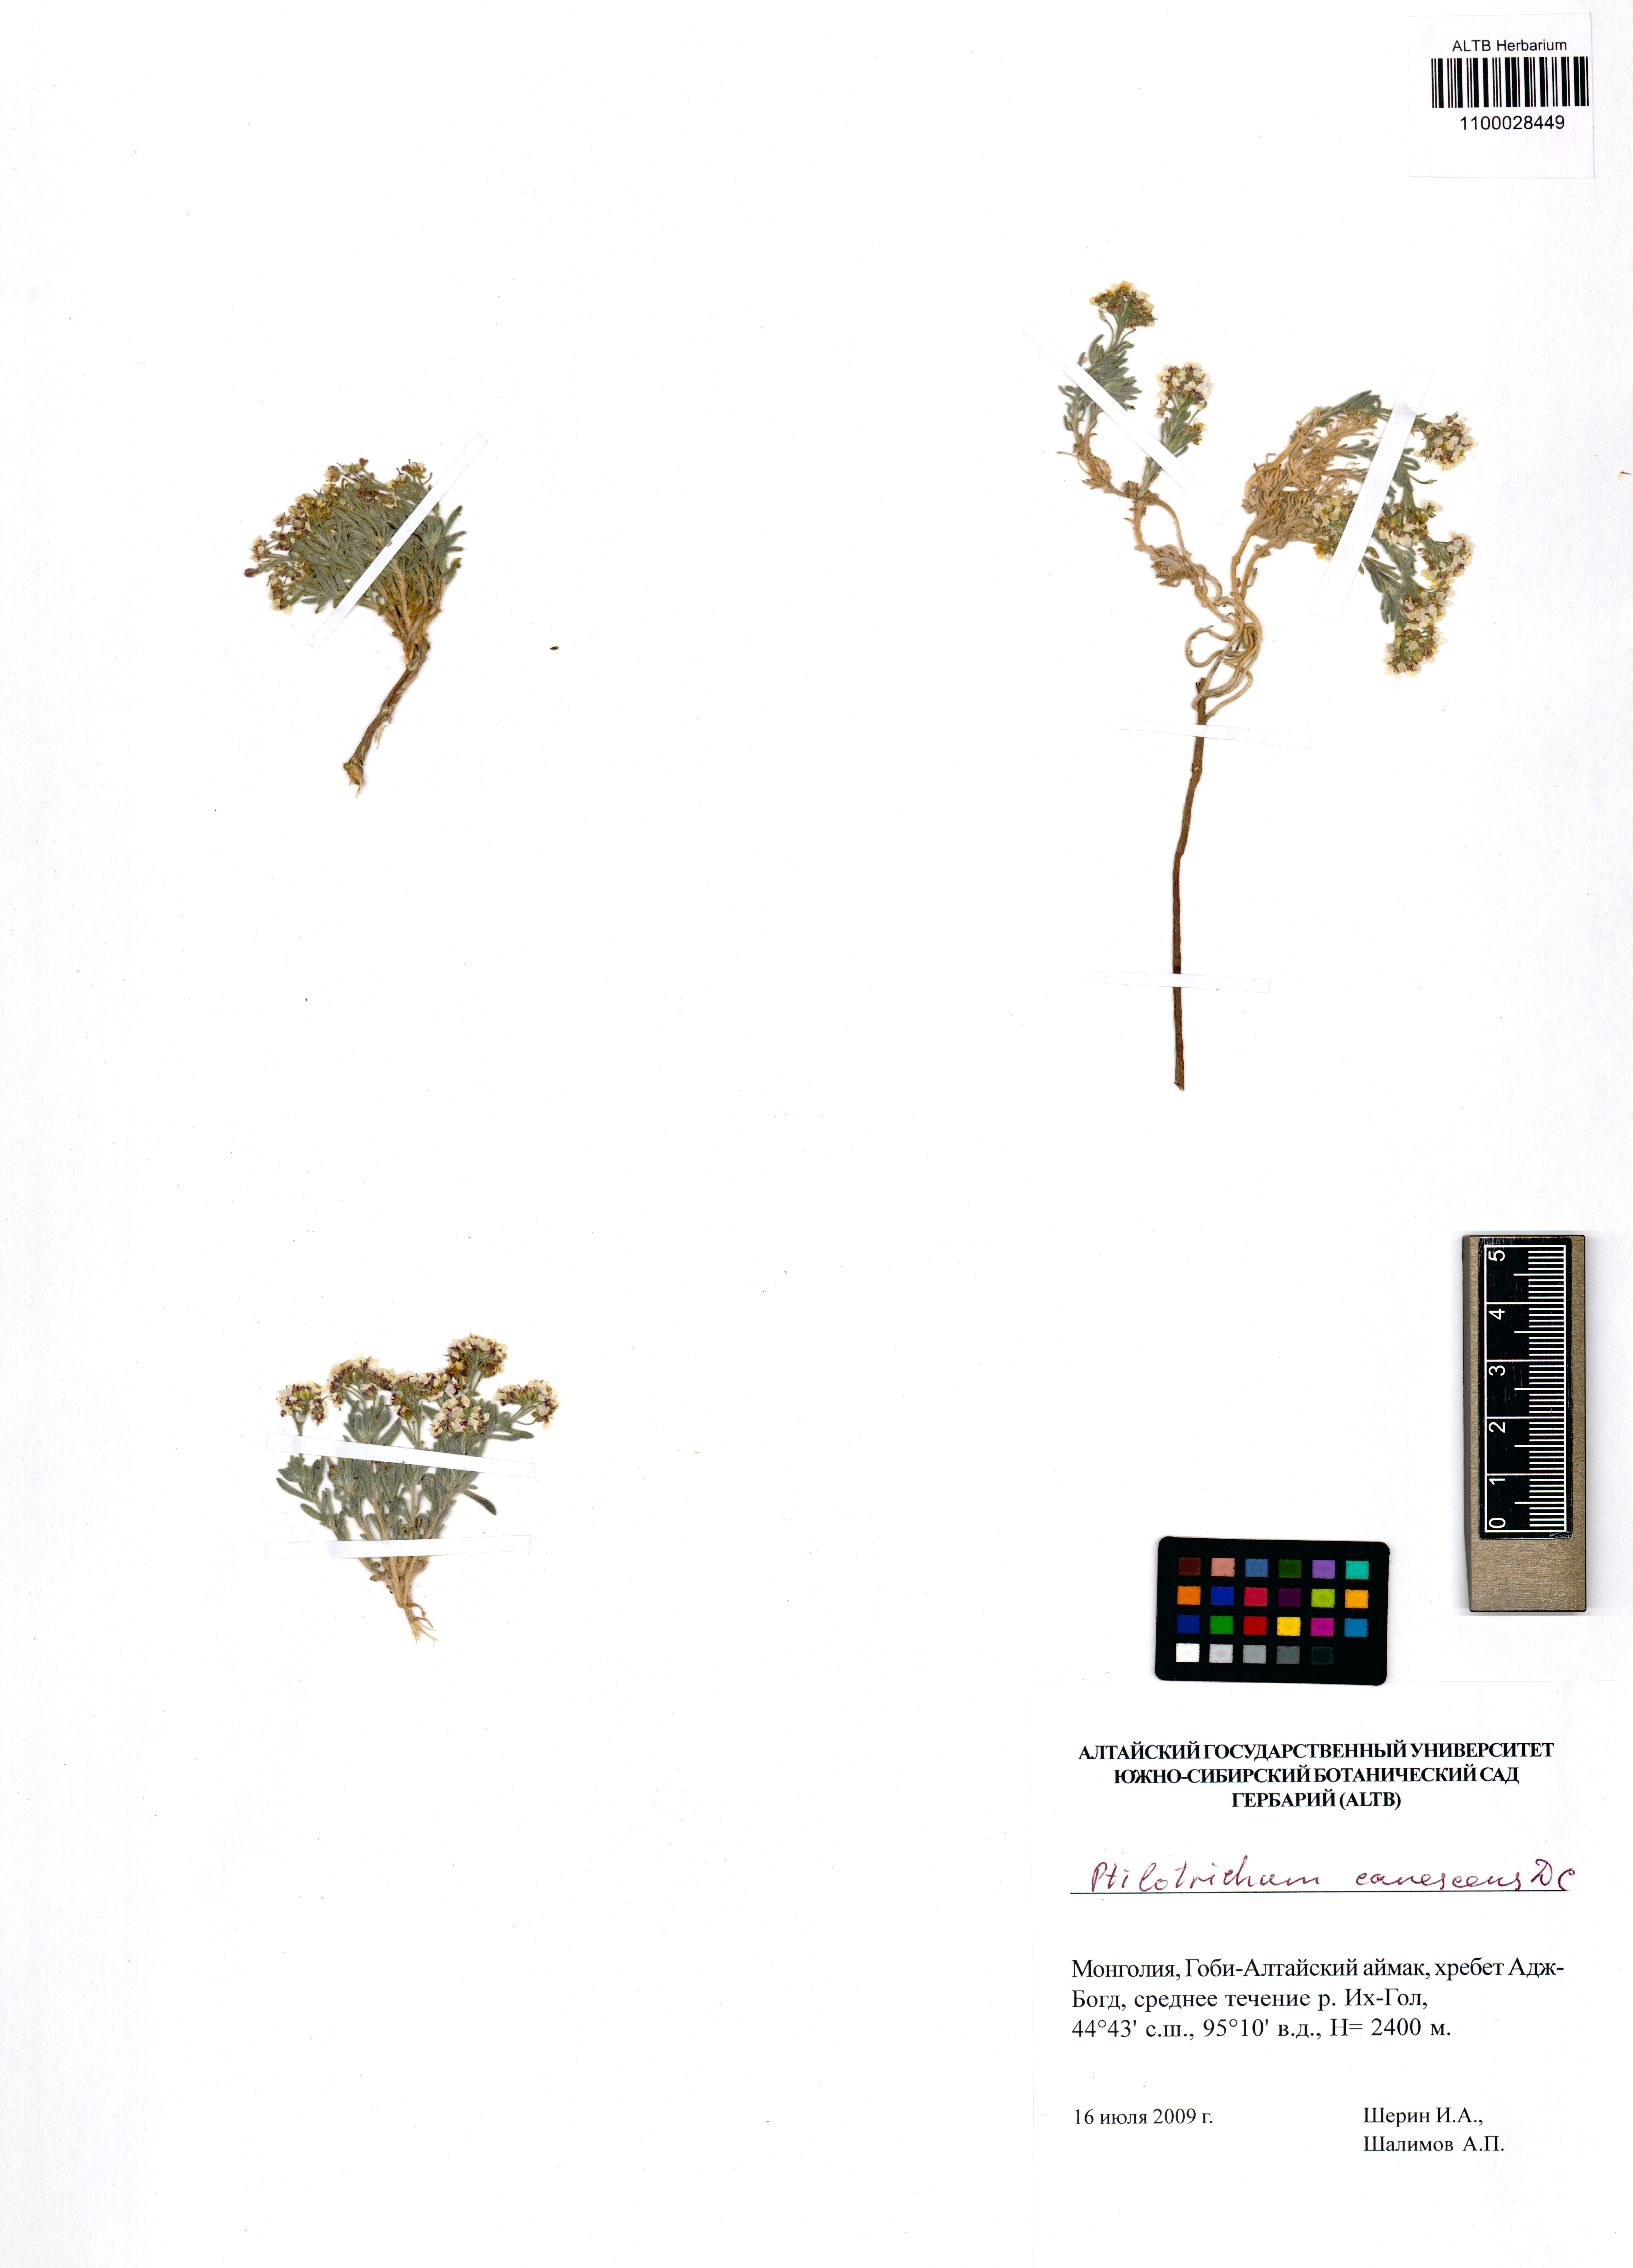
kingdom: Plantae
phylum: Tracheophyta
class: Magnoliopsida
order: Brassicales
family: Brassicaceae
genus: Stevenia
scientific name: Stevenia canescens
